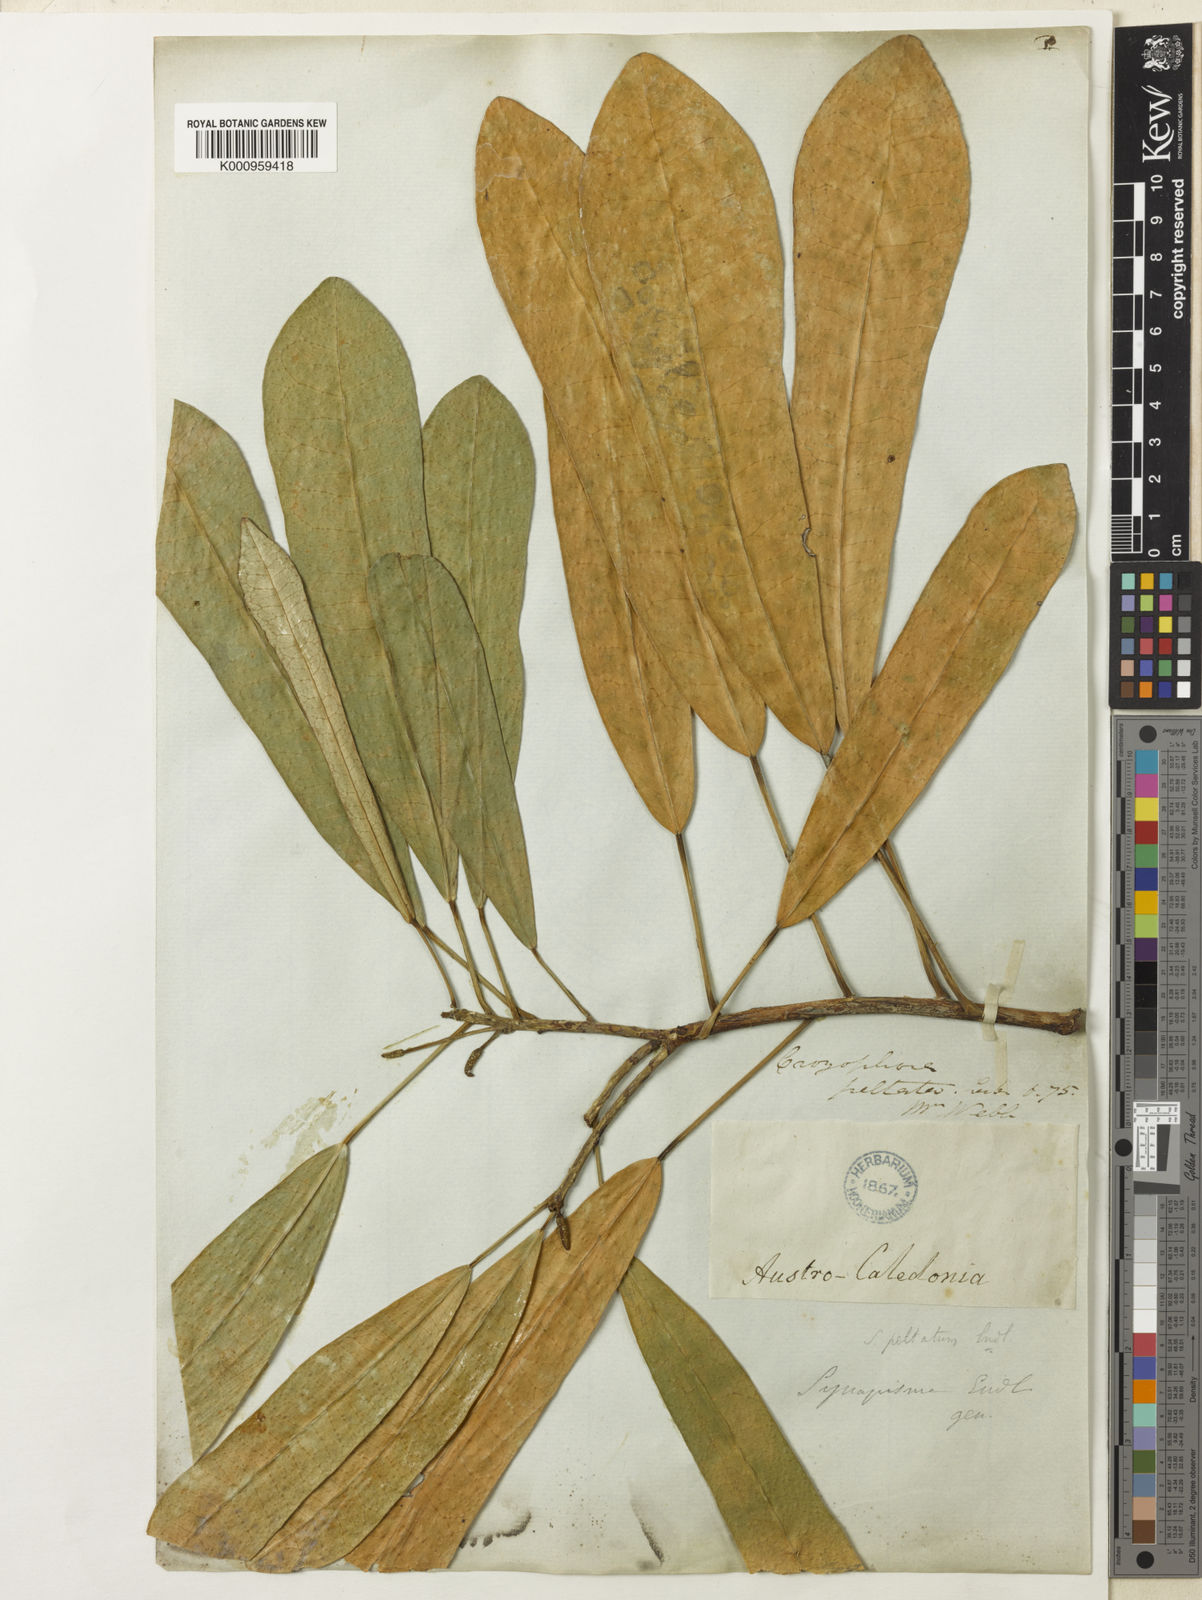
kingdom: Plantae
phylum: Tracheophyta
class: Magnoliopsida
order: Malpighiales
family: Euphorbiaceae
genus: Codiaeum
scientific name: Codiaeum
